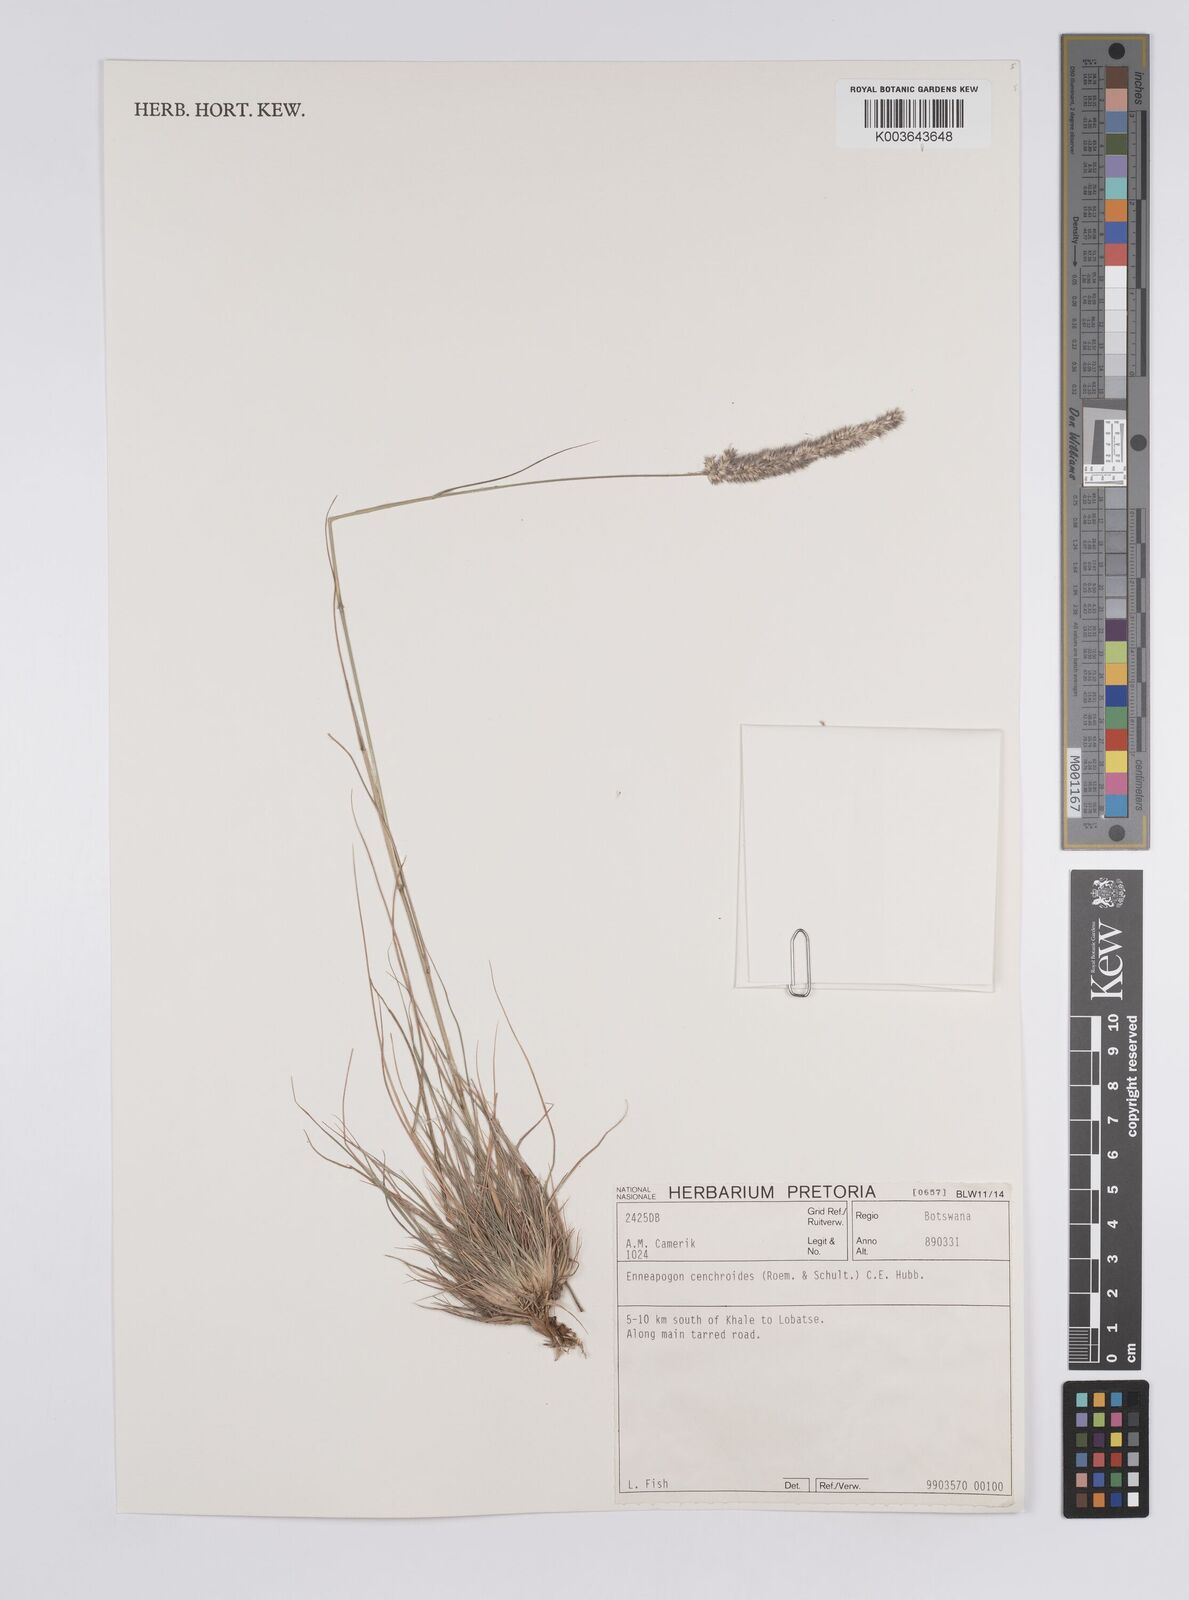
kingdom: Plantae
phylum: Tracheophyta
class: Liliopsida
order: Poales
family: Poaceae
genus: Enneapogon
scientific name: Enneapogon cenchroides
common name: Soft feather pappusgrass
